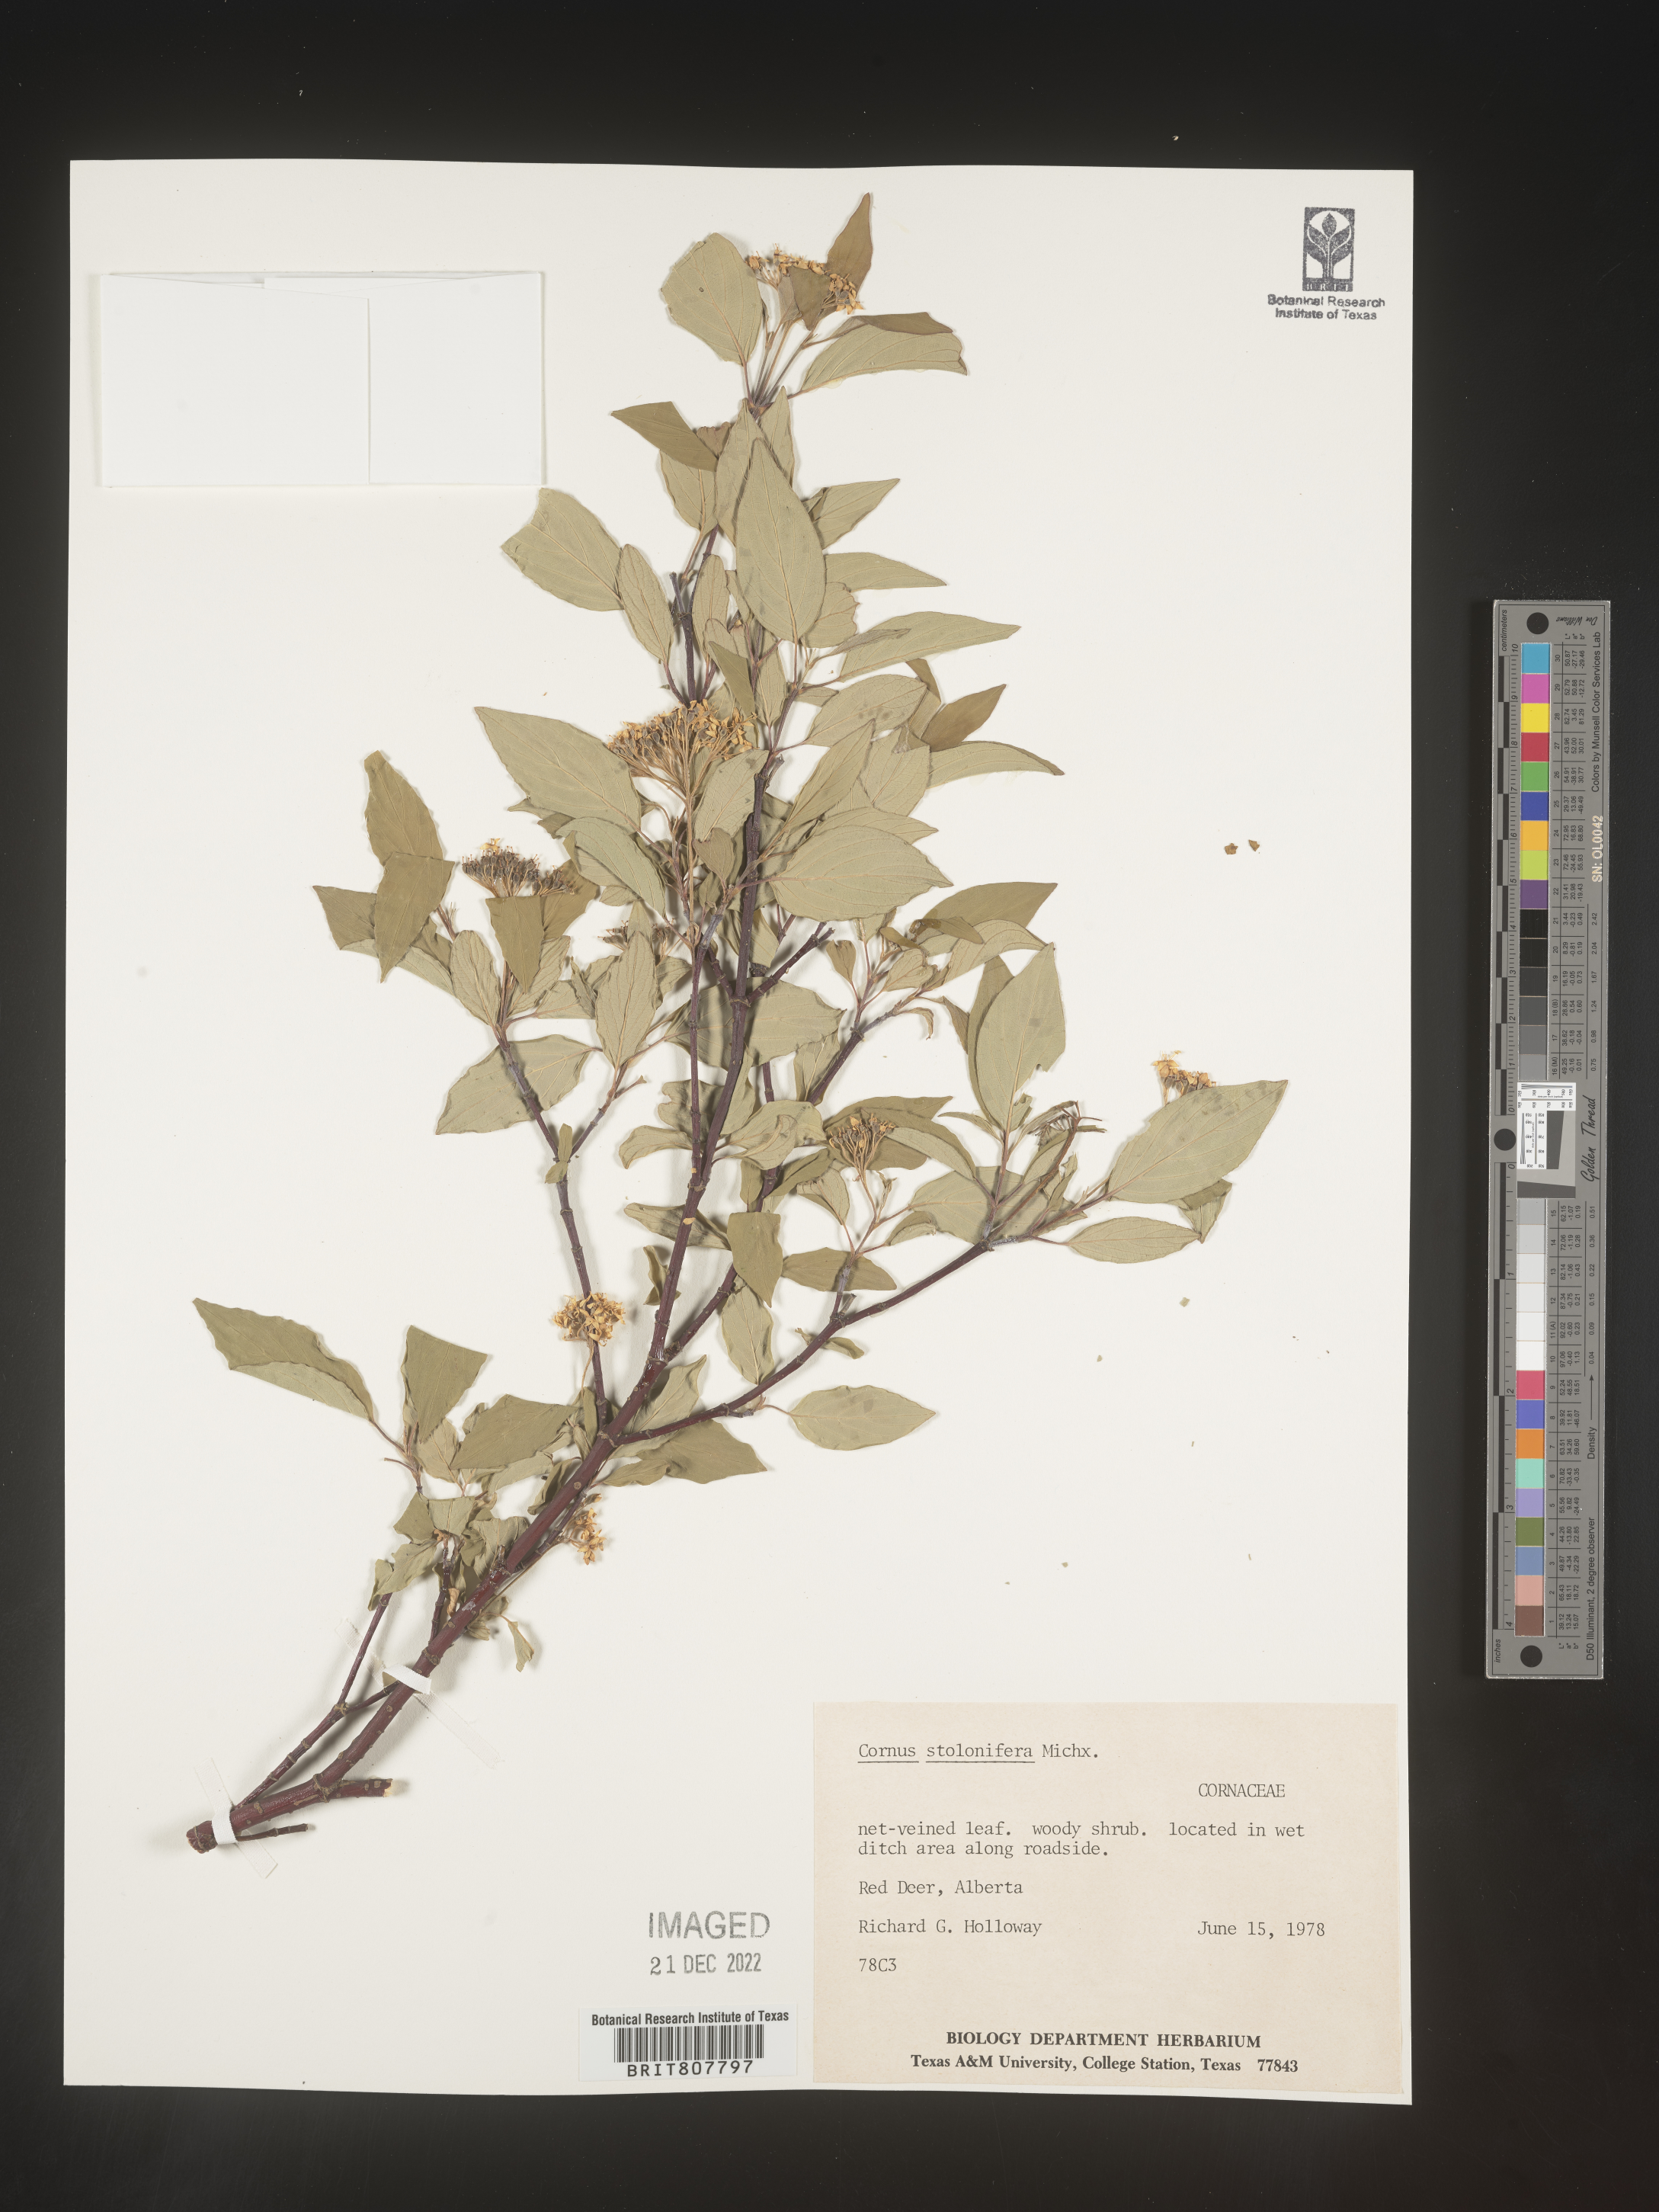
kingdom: Plantae
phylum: Tracheophyta
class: Magnoliopsida
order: Cornales
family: Cornaceae
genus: Cornus
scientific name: Cornus sericea
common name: Red-osier dogwood
